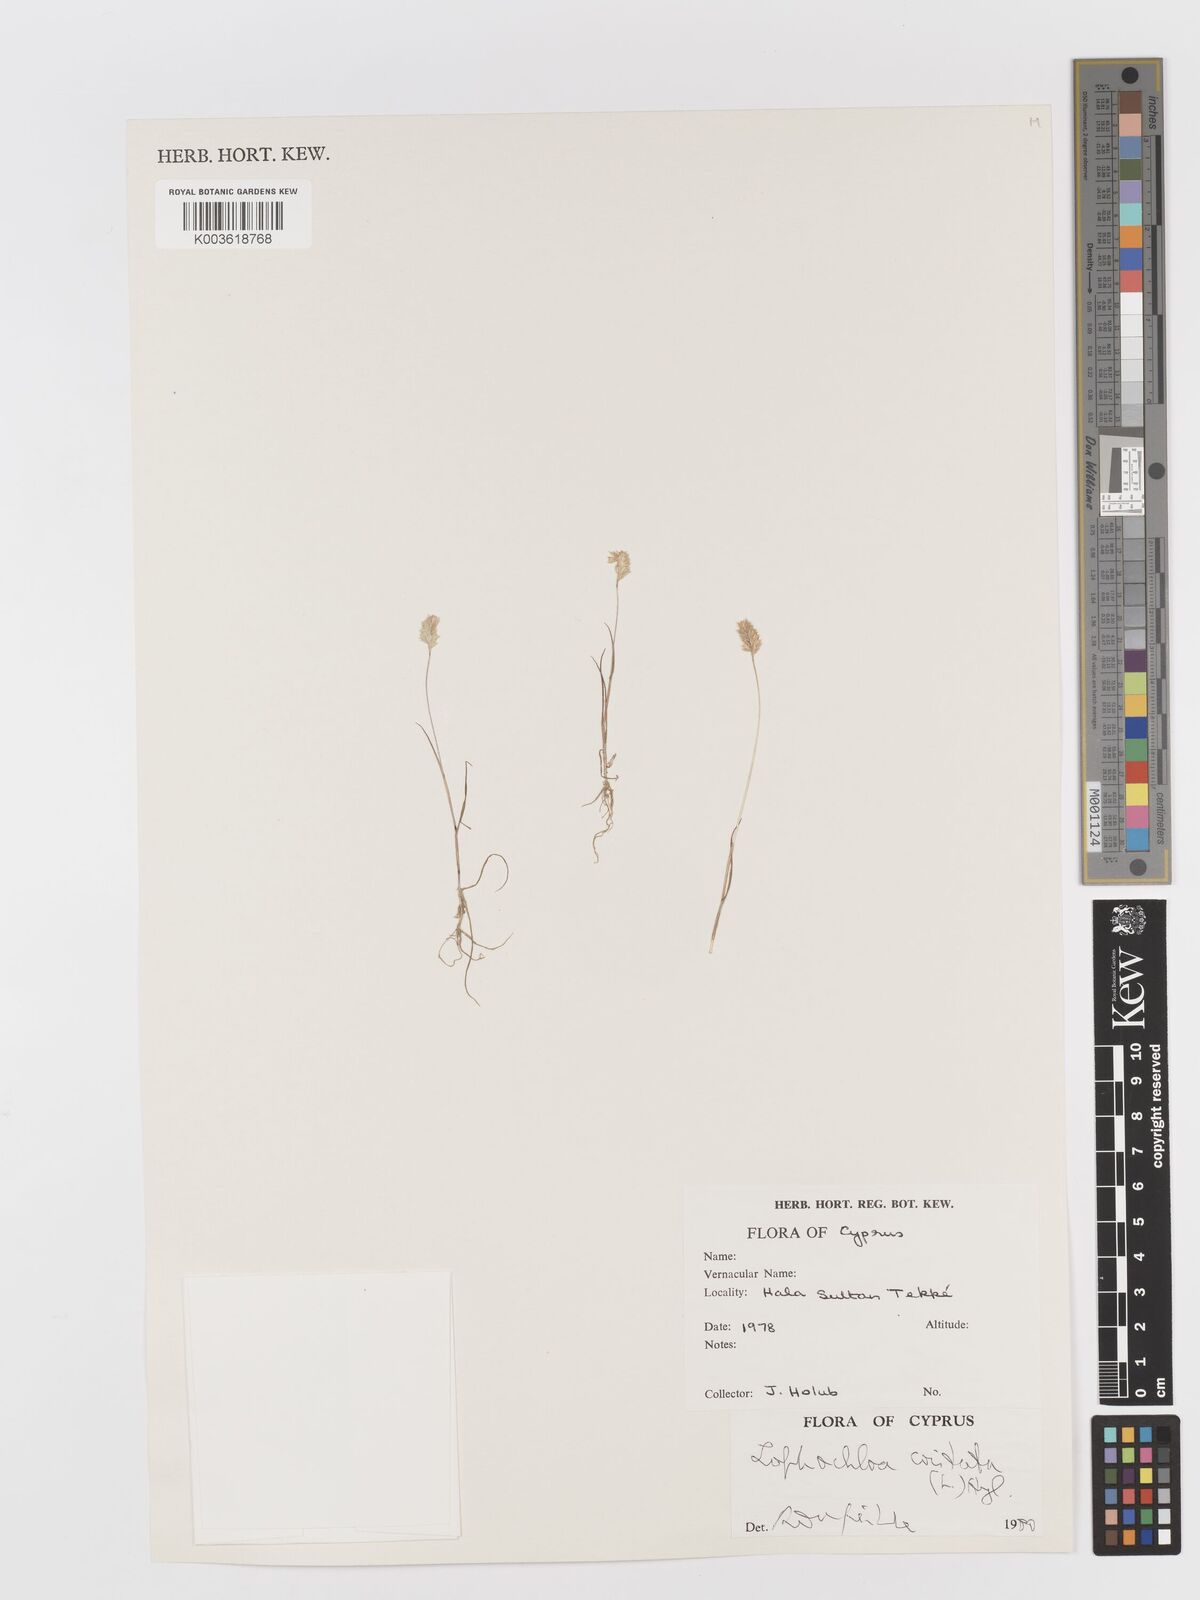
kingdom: Plantae
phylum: Tracheophyta
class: Liliopsida
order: Poales
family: Poaceae
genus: Rostraria
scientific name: Rostraria cristata
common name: Mediterranean hair-grass
